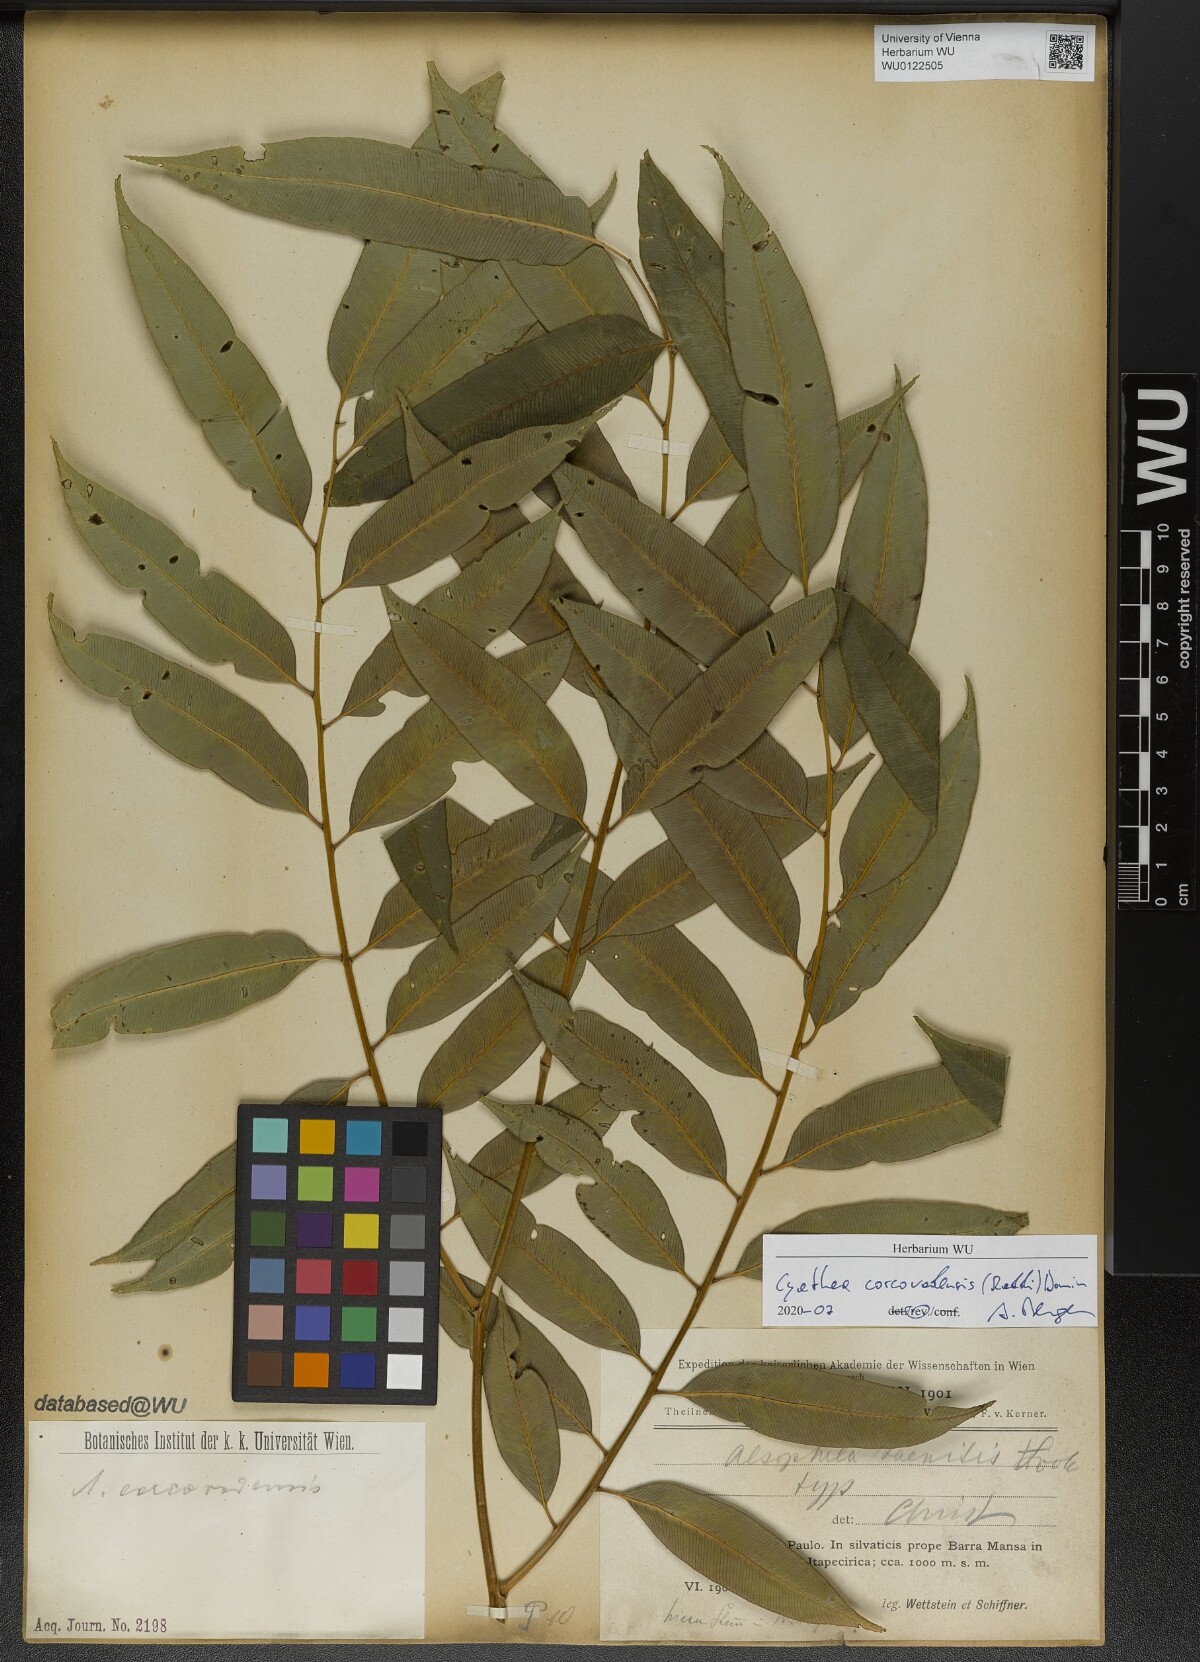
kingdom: Plantae
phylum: Tracheophyta
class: Polypodiopsida
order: Cyatheales
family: Cyatheaceae
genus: Cyathea
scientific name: Cyathea corcovadensis
